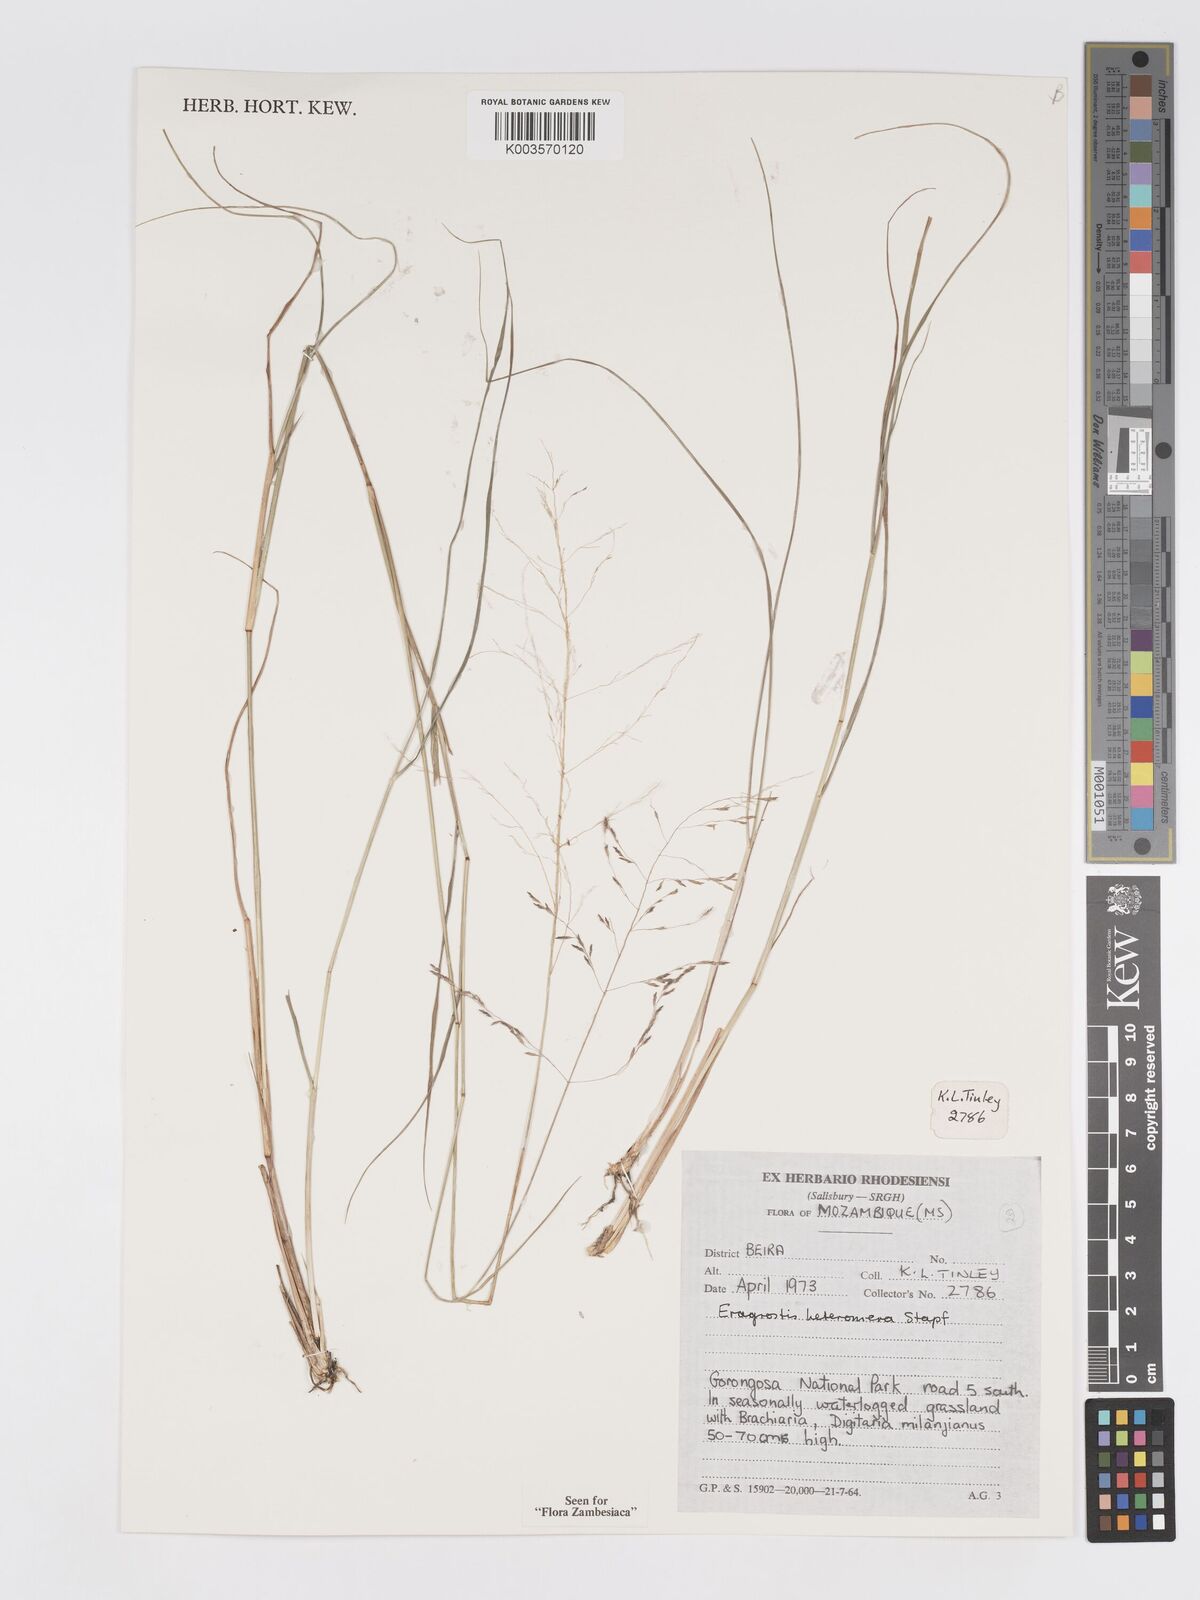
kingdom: Plantae
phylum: Tracheophyta
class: Liliopsida
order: Poales
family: Poaceae
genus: Eragrostis
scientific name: Eragrostis heteromera
